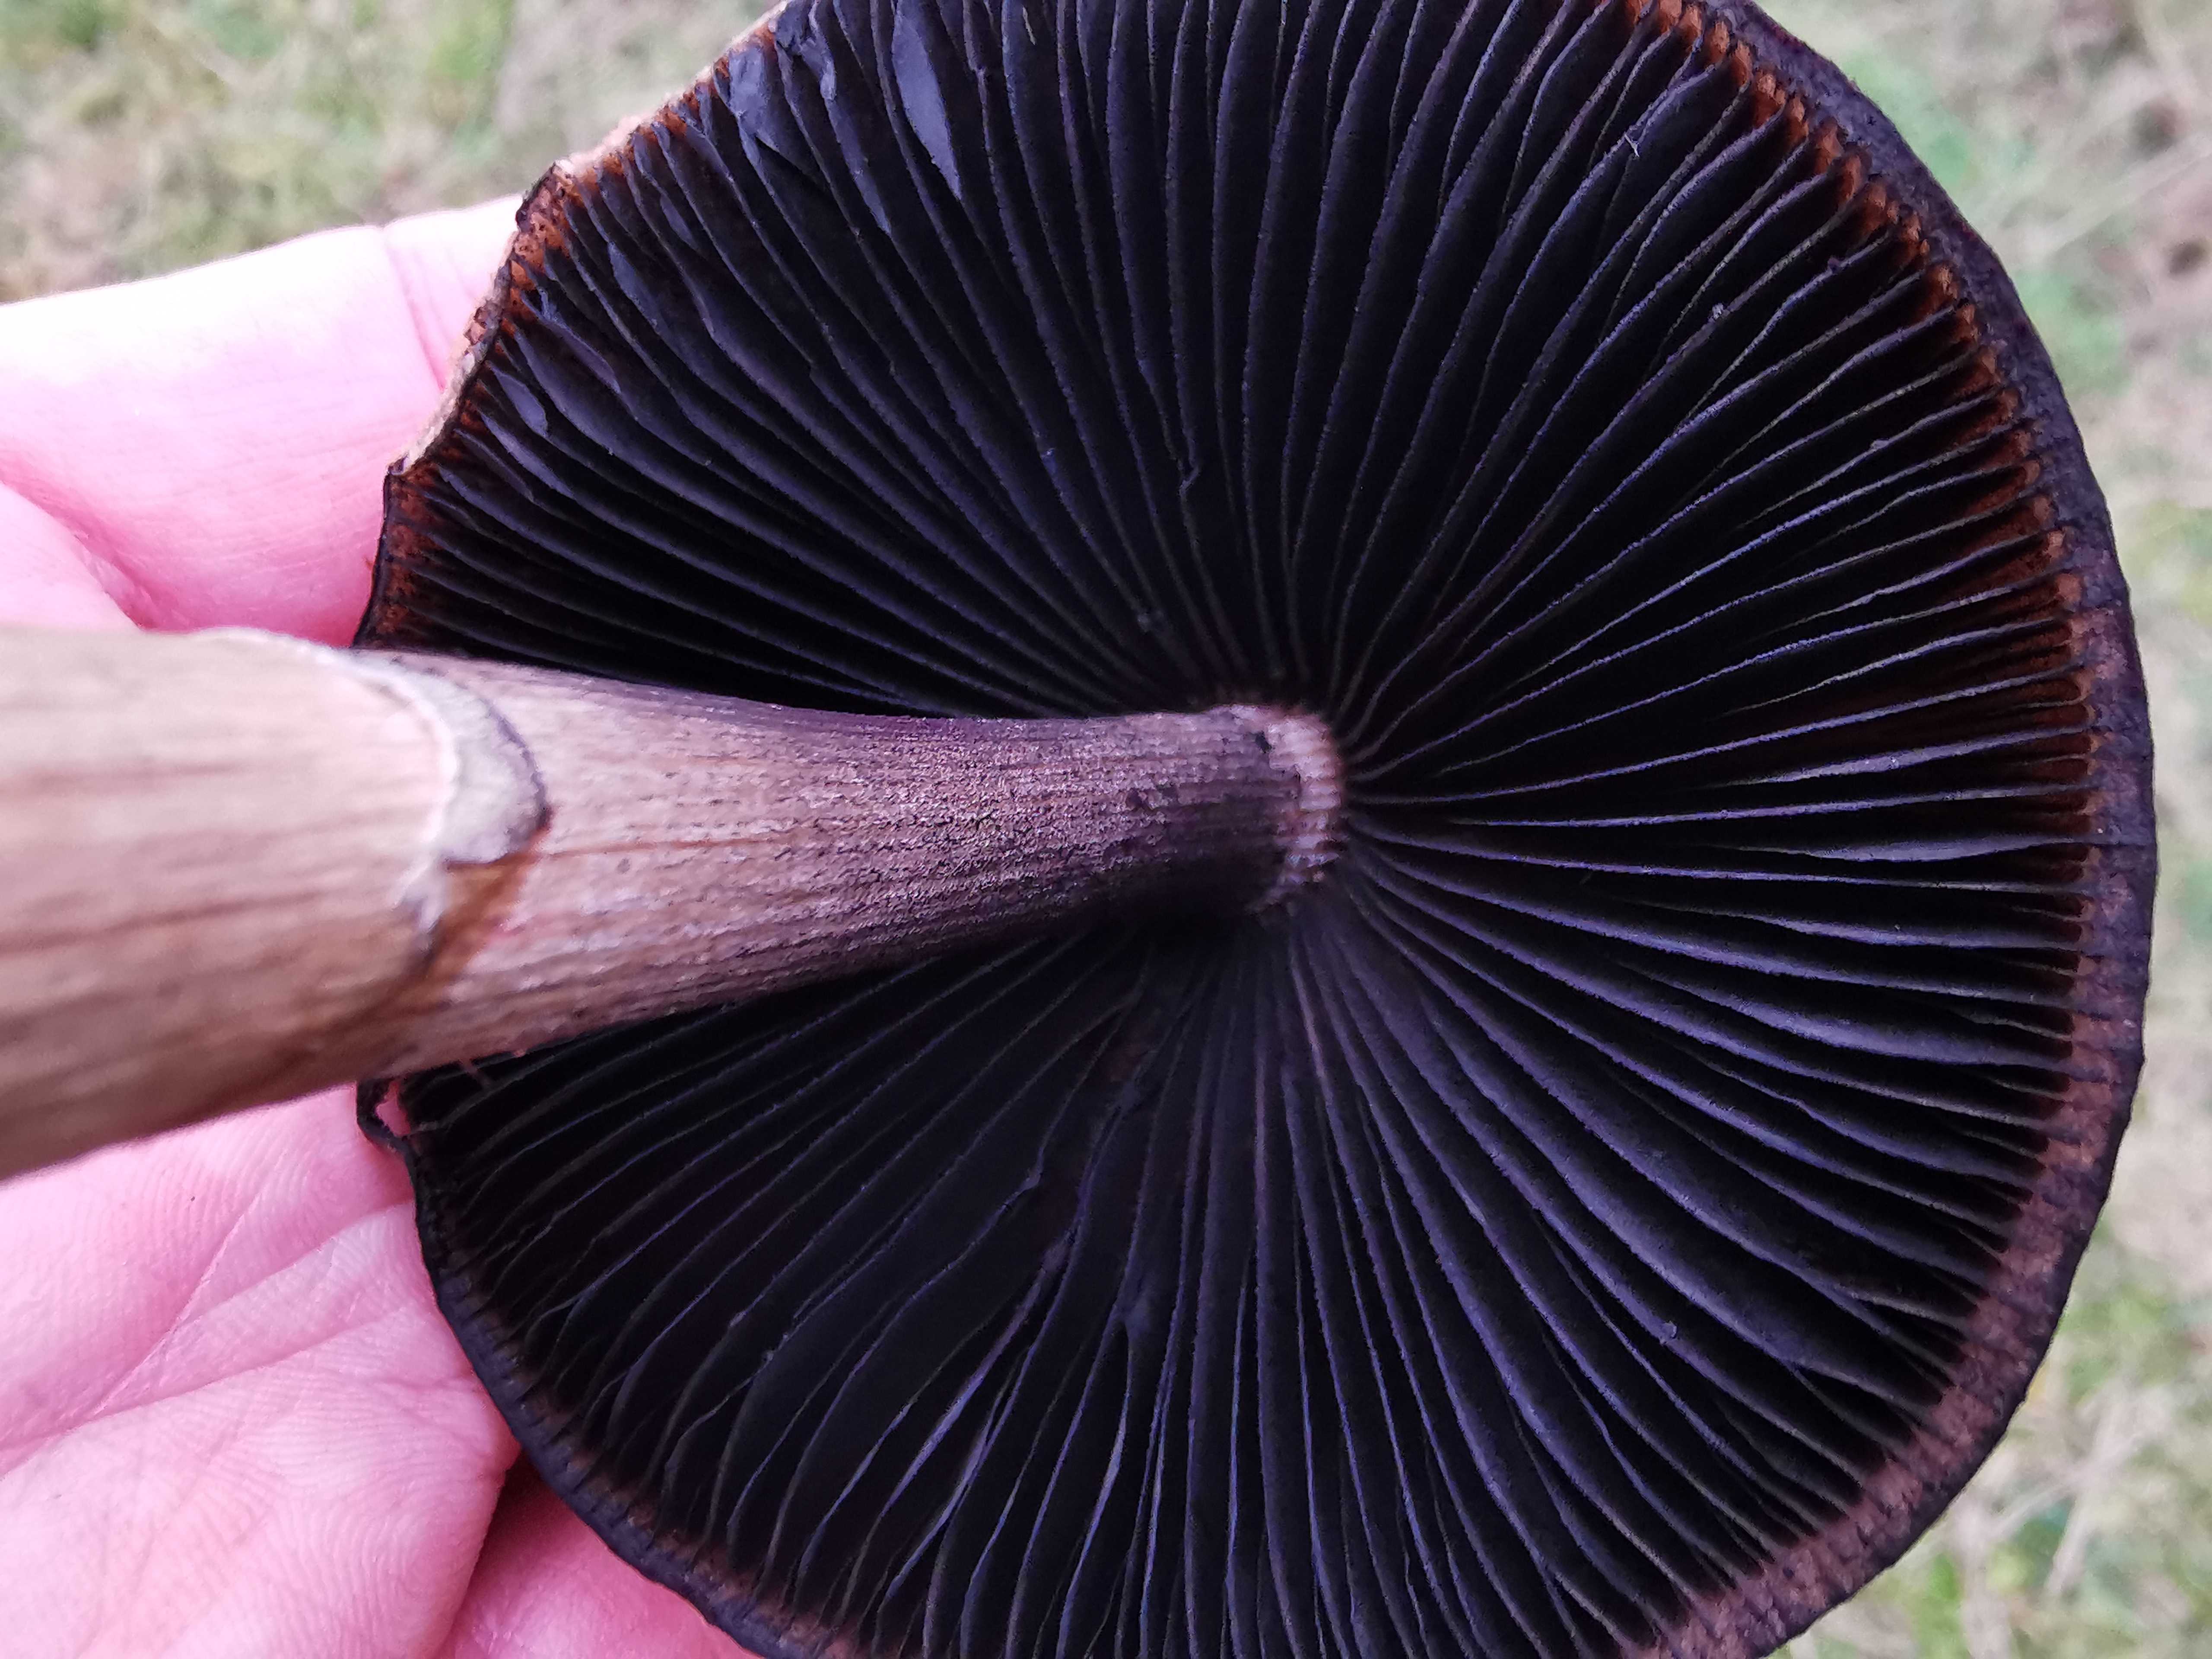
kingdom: Fungi
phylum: Basidiomycota
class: Agaricomycetes
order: Agaricales
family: Bolbitiaceae
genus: Panaeolus
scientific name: Panaeolus semiovatus
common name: ring-glanshat
